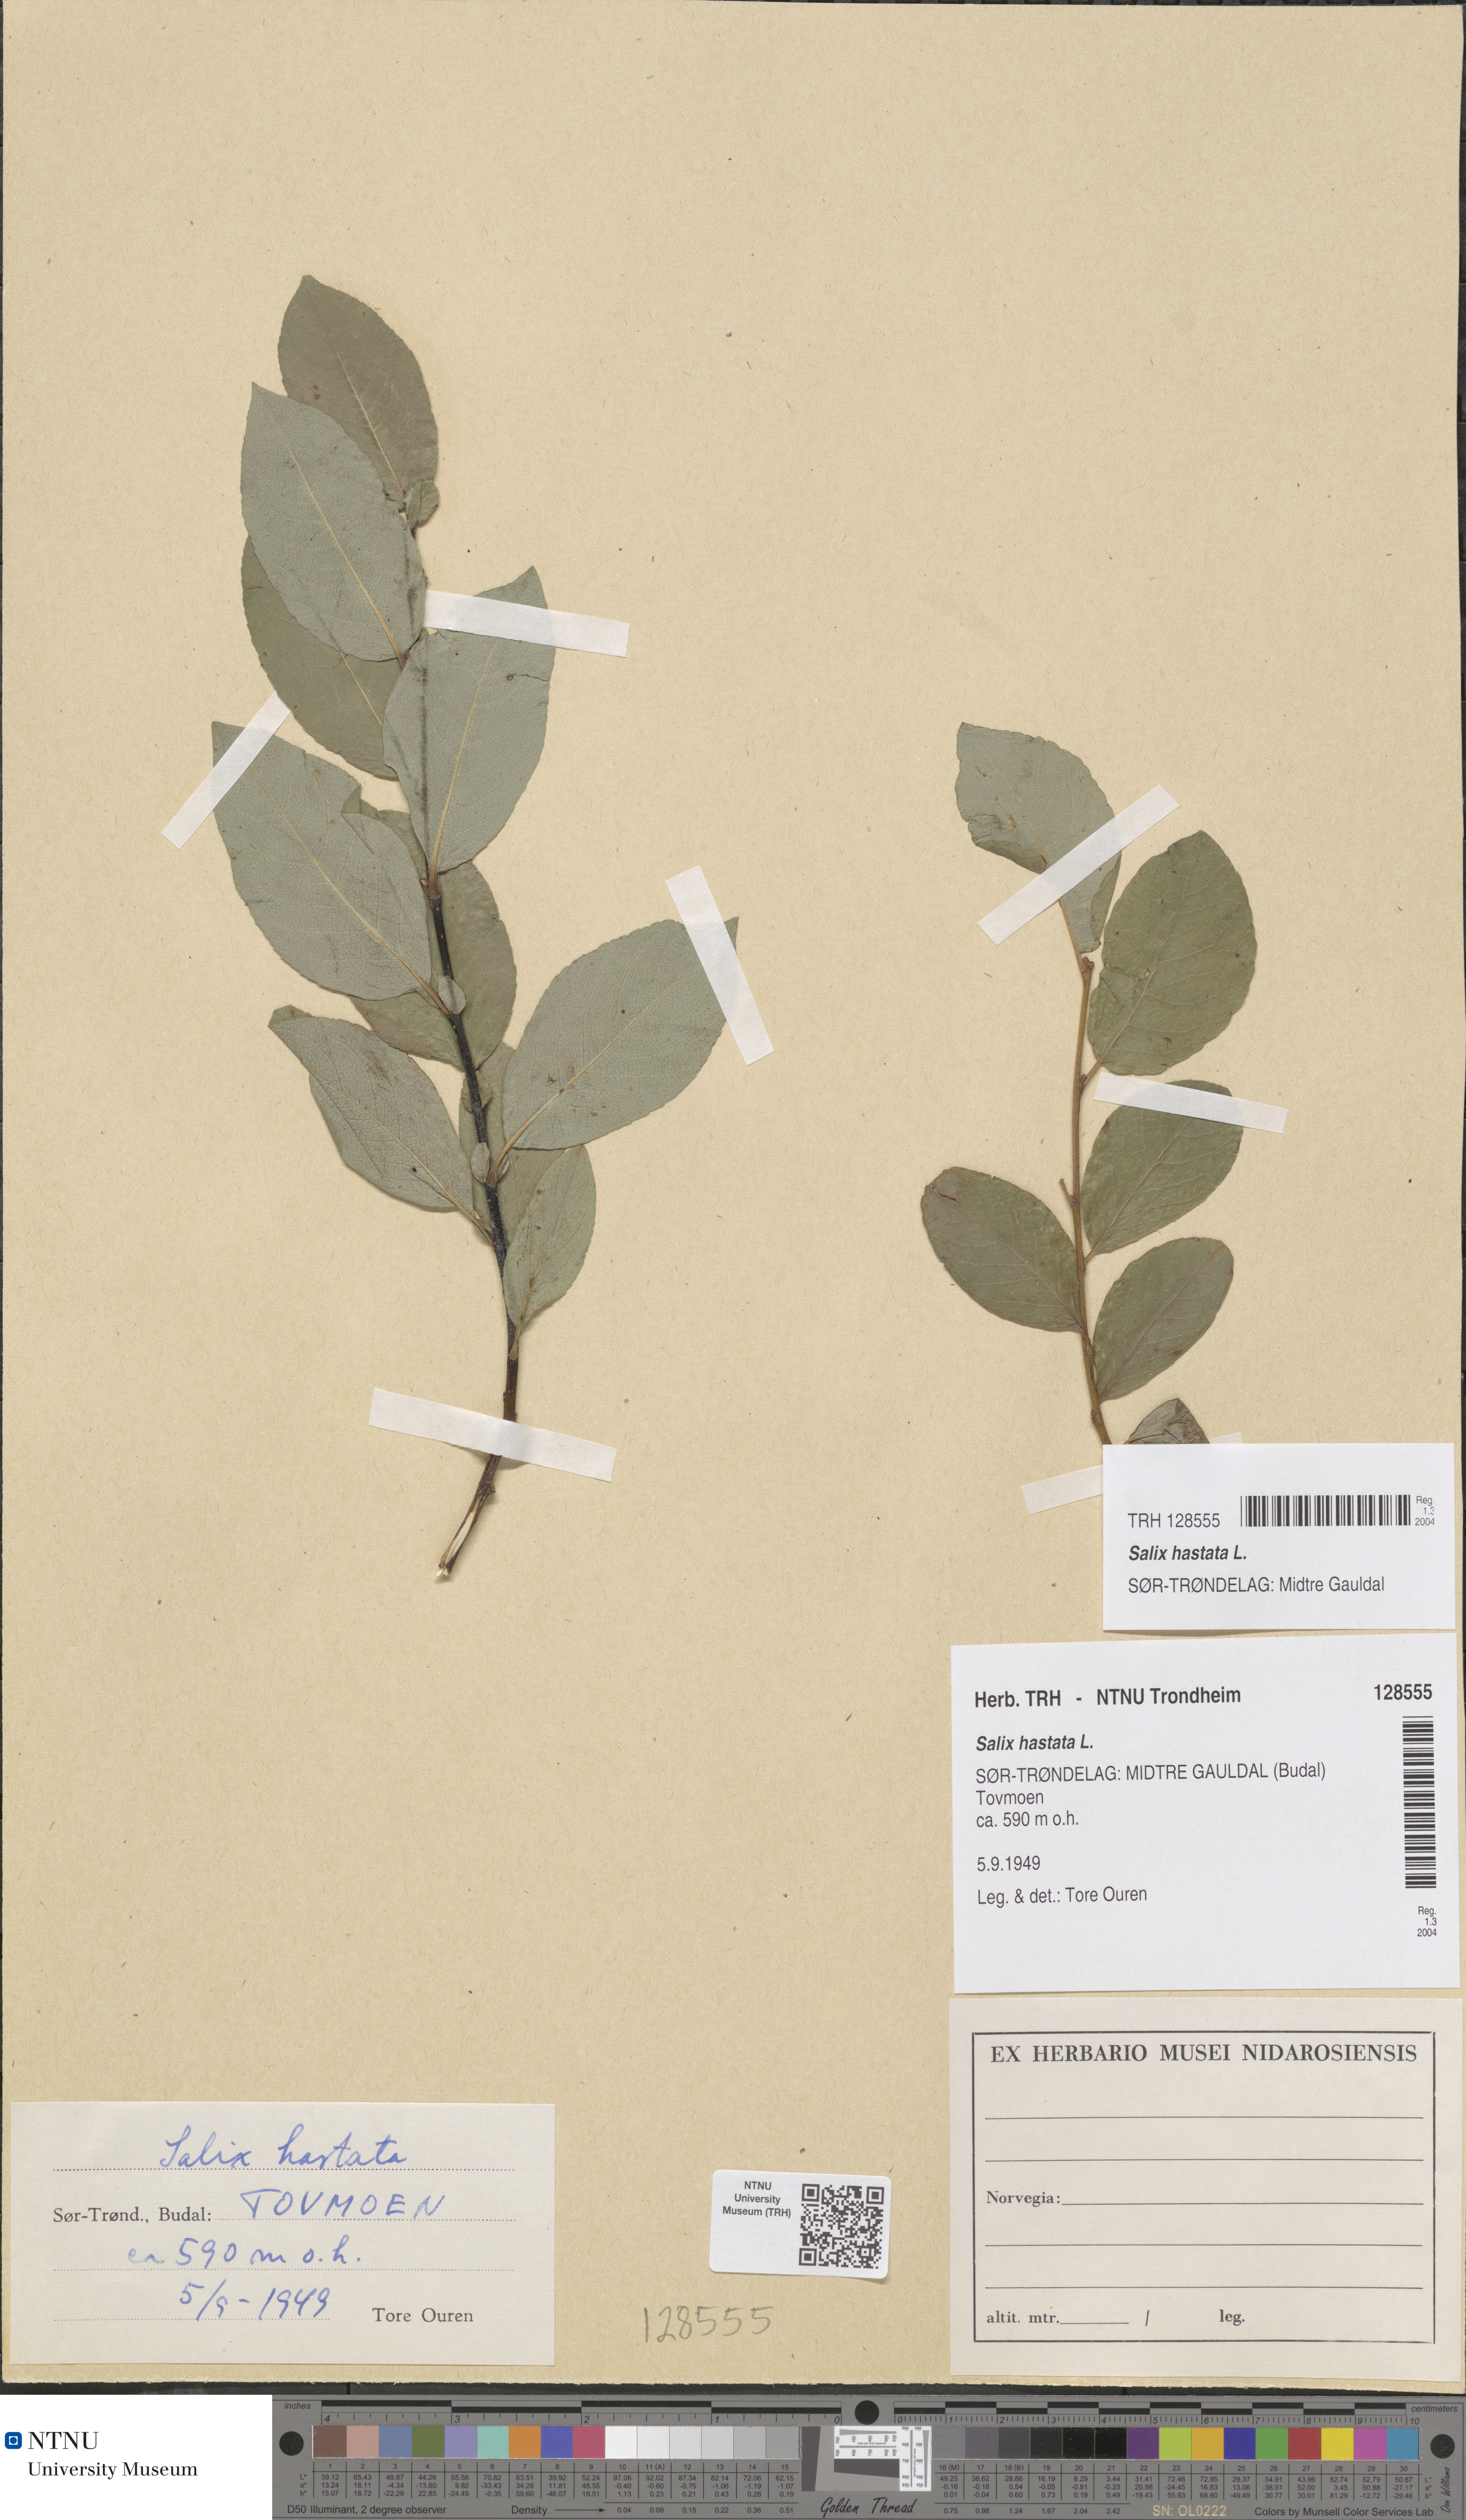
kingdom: Plantae
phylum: Tracheophyta
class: Magnoliopsida
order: Malpighiales
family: Salicaceae
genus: Salix
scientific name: Salix hastata
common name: Halberd willow
